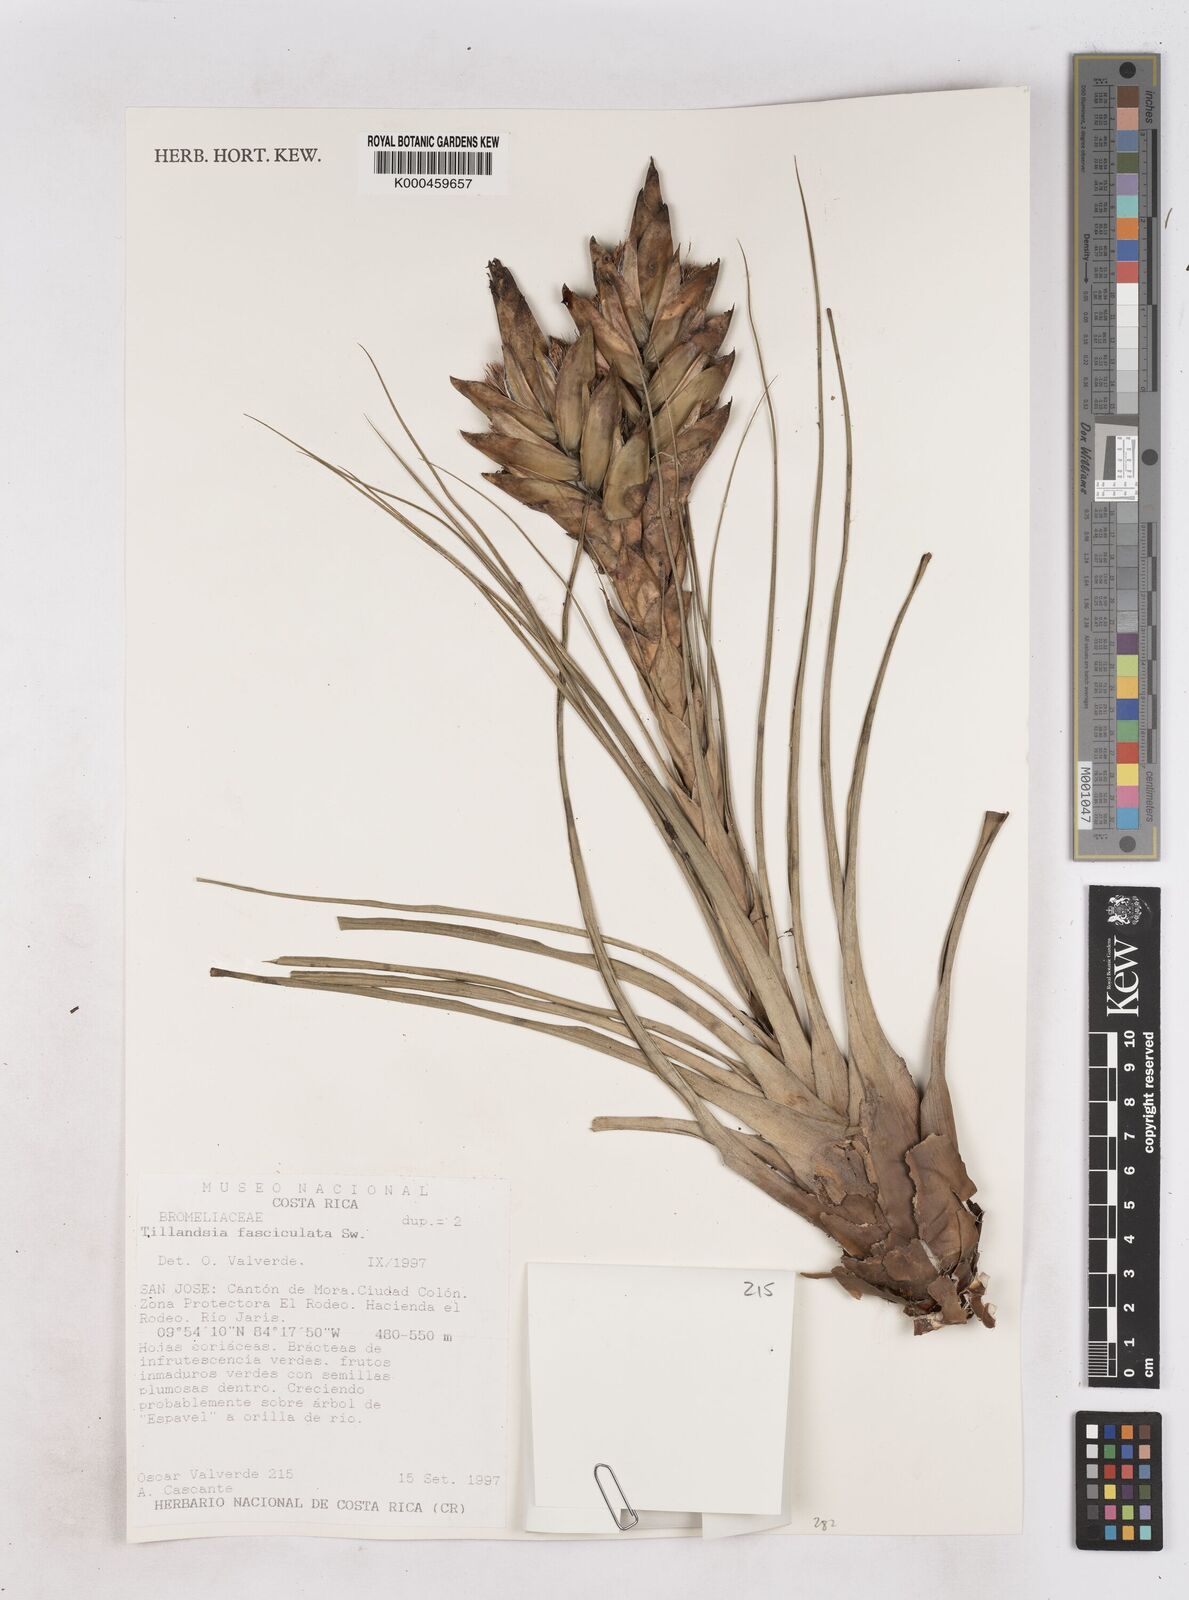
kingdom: Plantae
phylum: Tracheophyta
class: Liliopsida
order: Poales
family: Bromeliaceae
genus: Tillandsia
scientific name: Tillandsia
